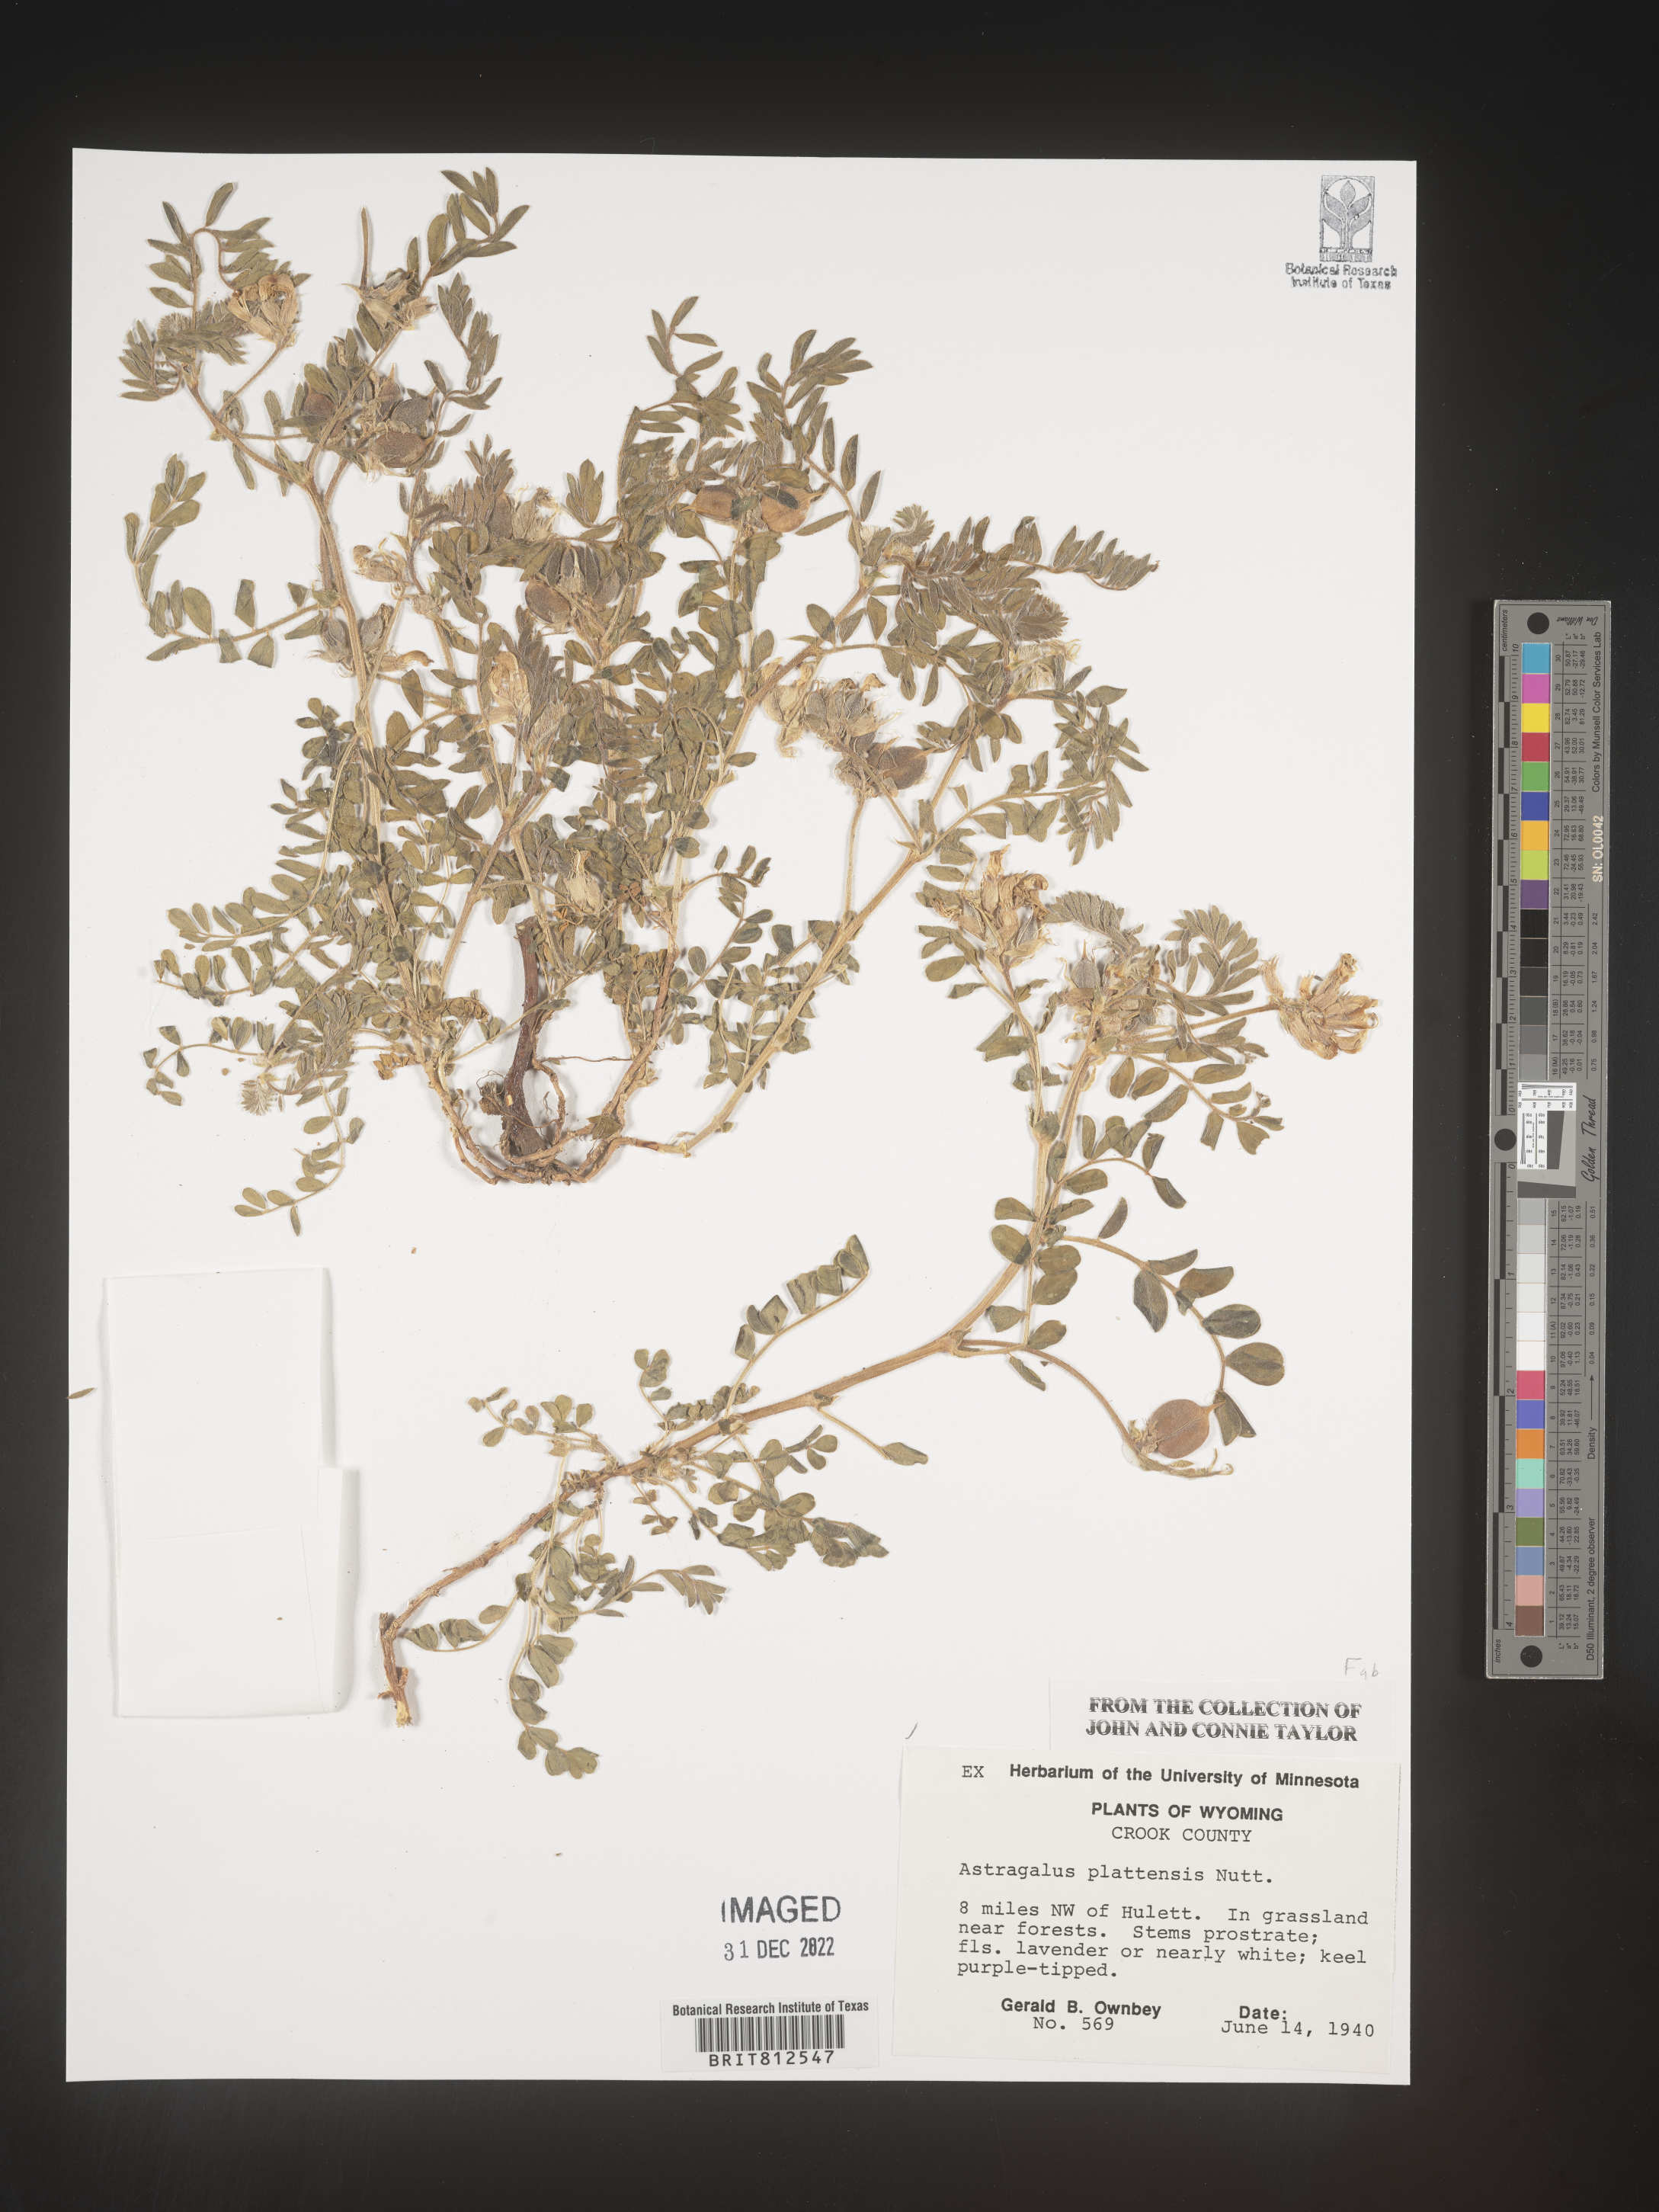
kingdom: Plantae
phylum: Tracheophyta
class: Magnoliopsida
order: Fabales
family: Fabaceae
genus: Astragalus
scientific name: Astragalus plattensis
